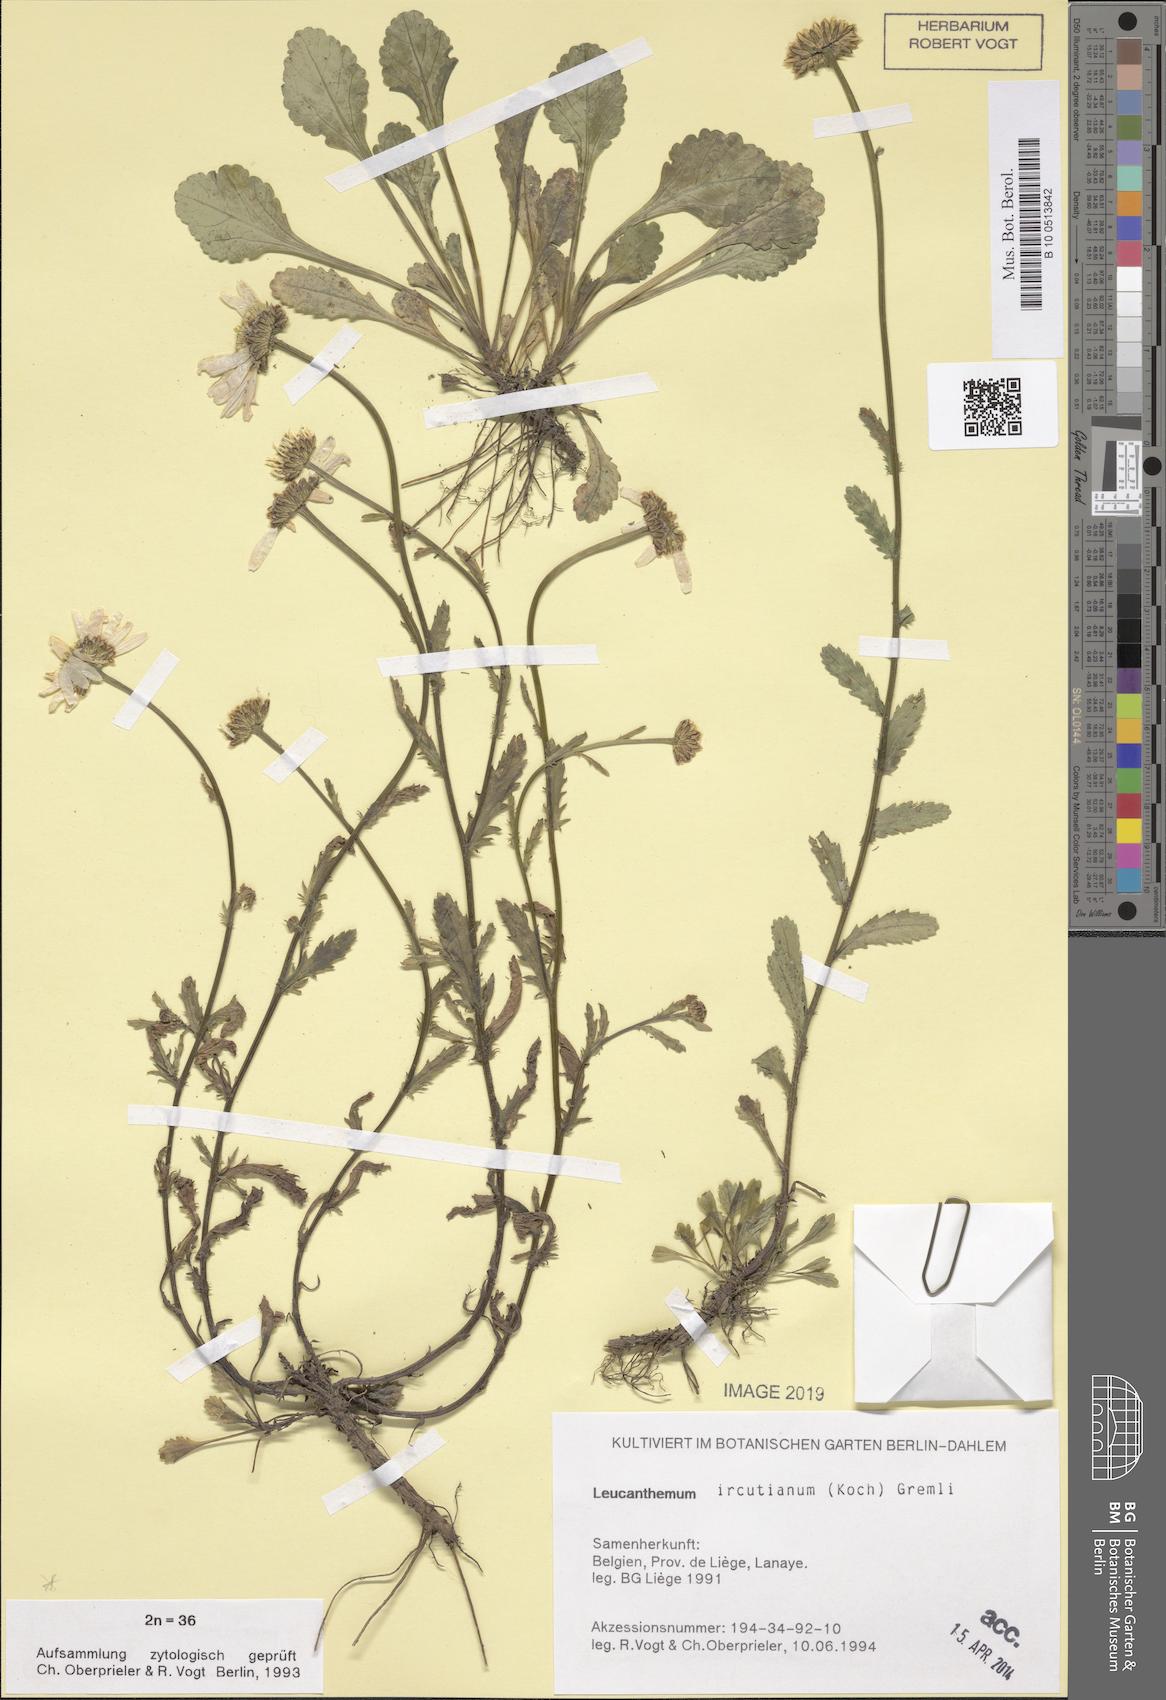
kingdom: Plantae
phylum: Tracheophyta
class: Magnoliopsida
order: Asterales
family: Asteraceae
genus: Leucanthemum
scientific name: Leucanthemum ircutianum
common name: Daisy
